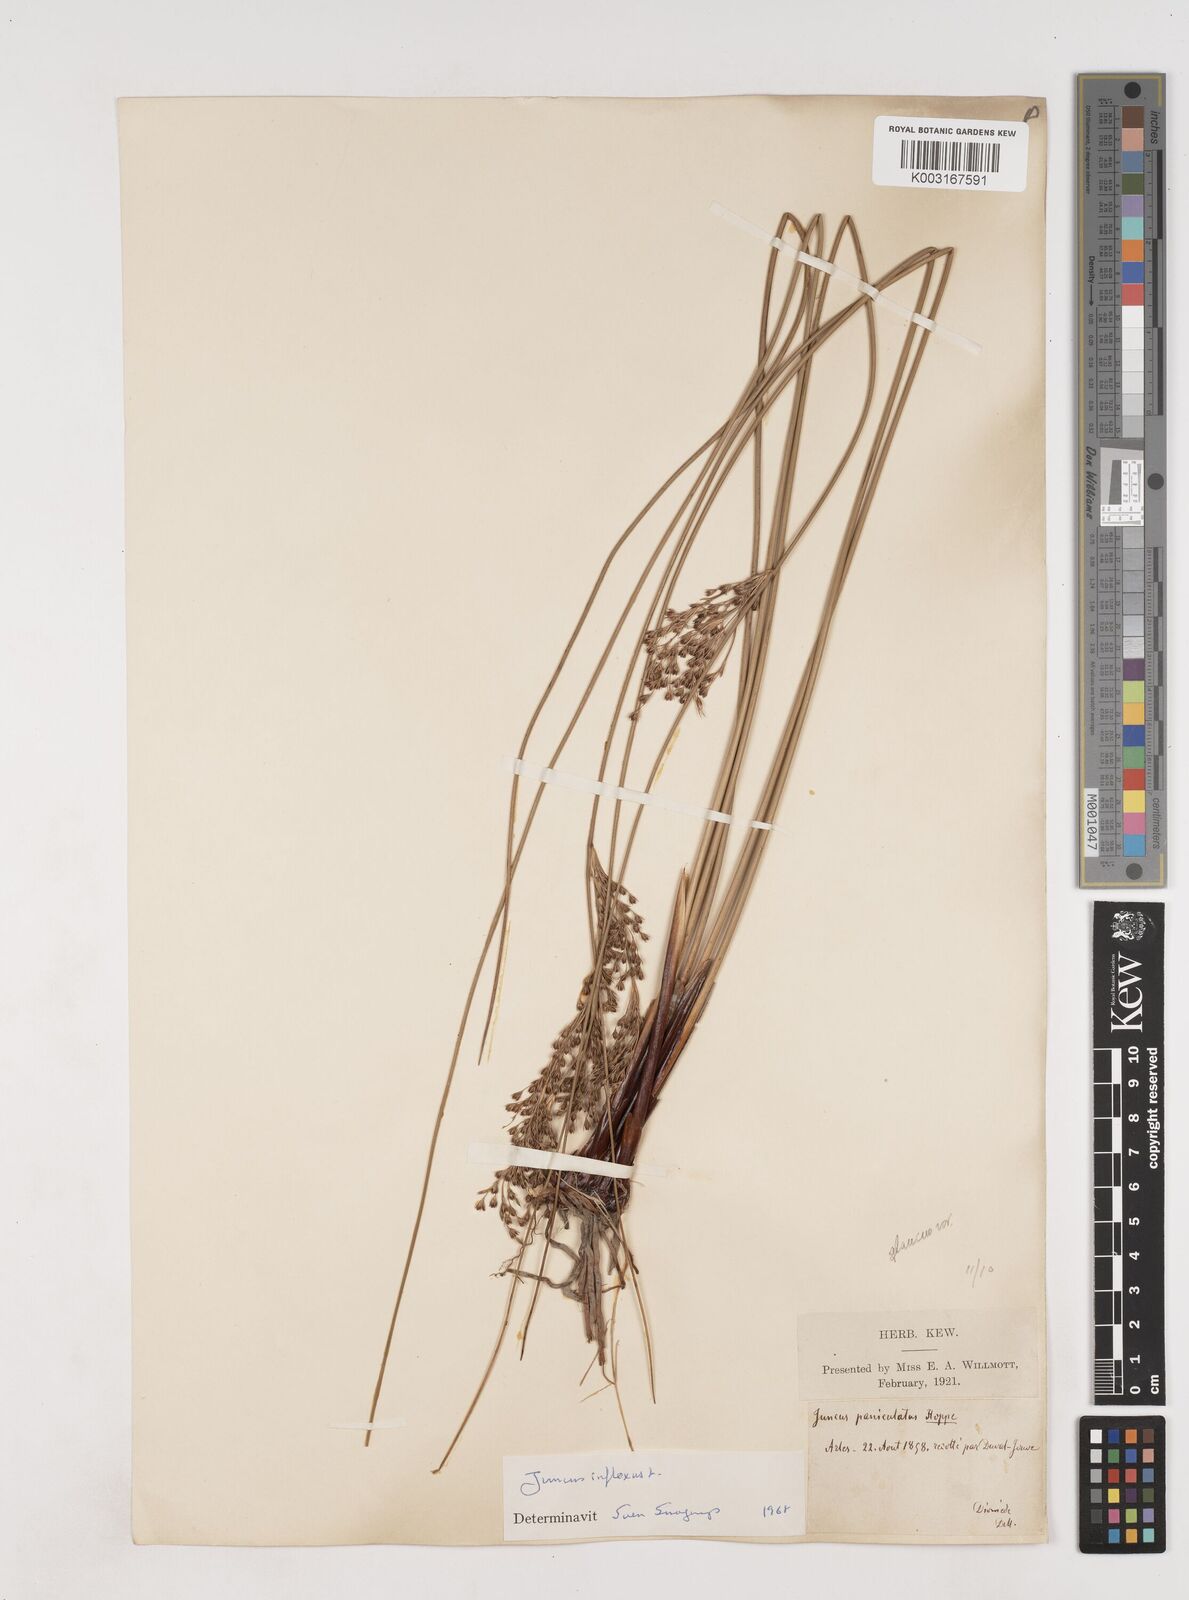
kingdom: Plantae
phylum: Tracheophyta
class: Liliopsida
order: Poales
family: Juncaceae
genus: Juncus
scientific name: Juncus inflexus
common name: Hard rush
